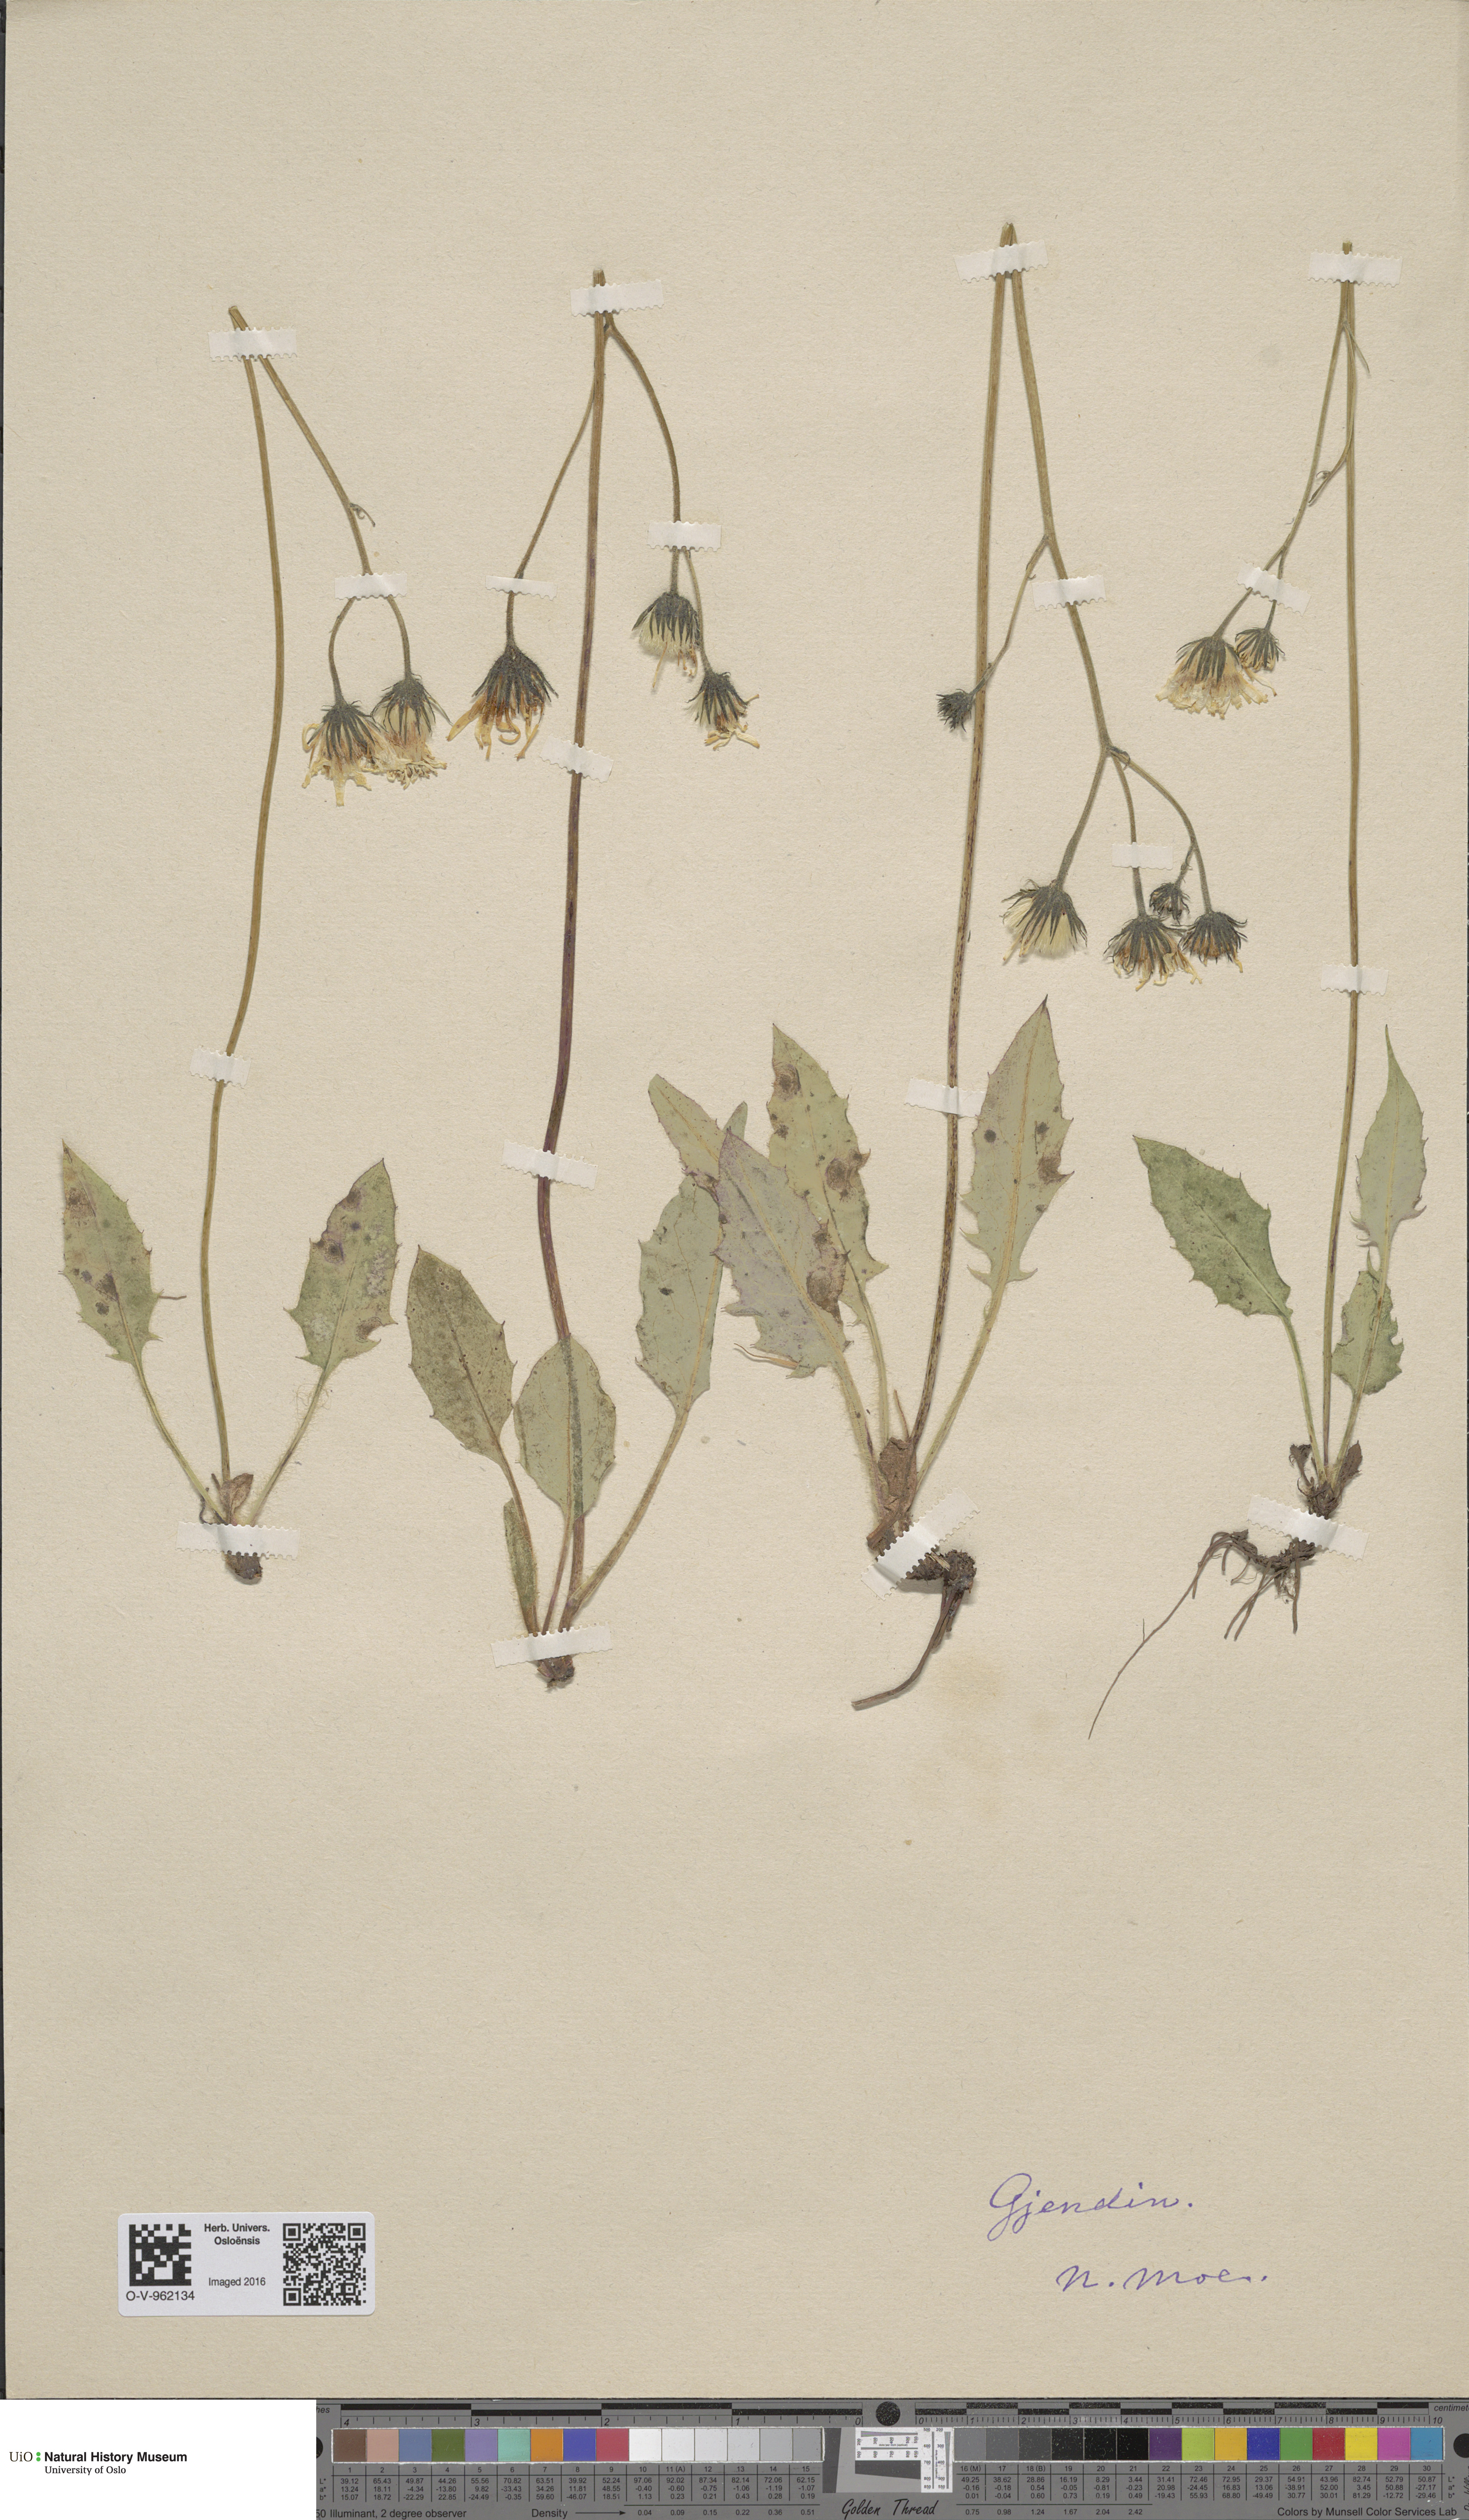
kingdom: Plantae
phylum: Tracheophyta
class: Magnoliopsida
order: Asterales
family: Asteraceae
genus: Hieracium
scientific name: Hieracium
